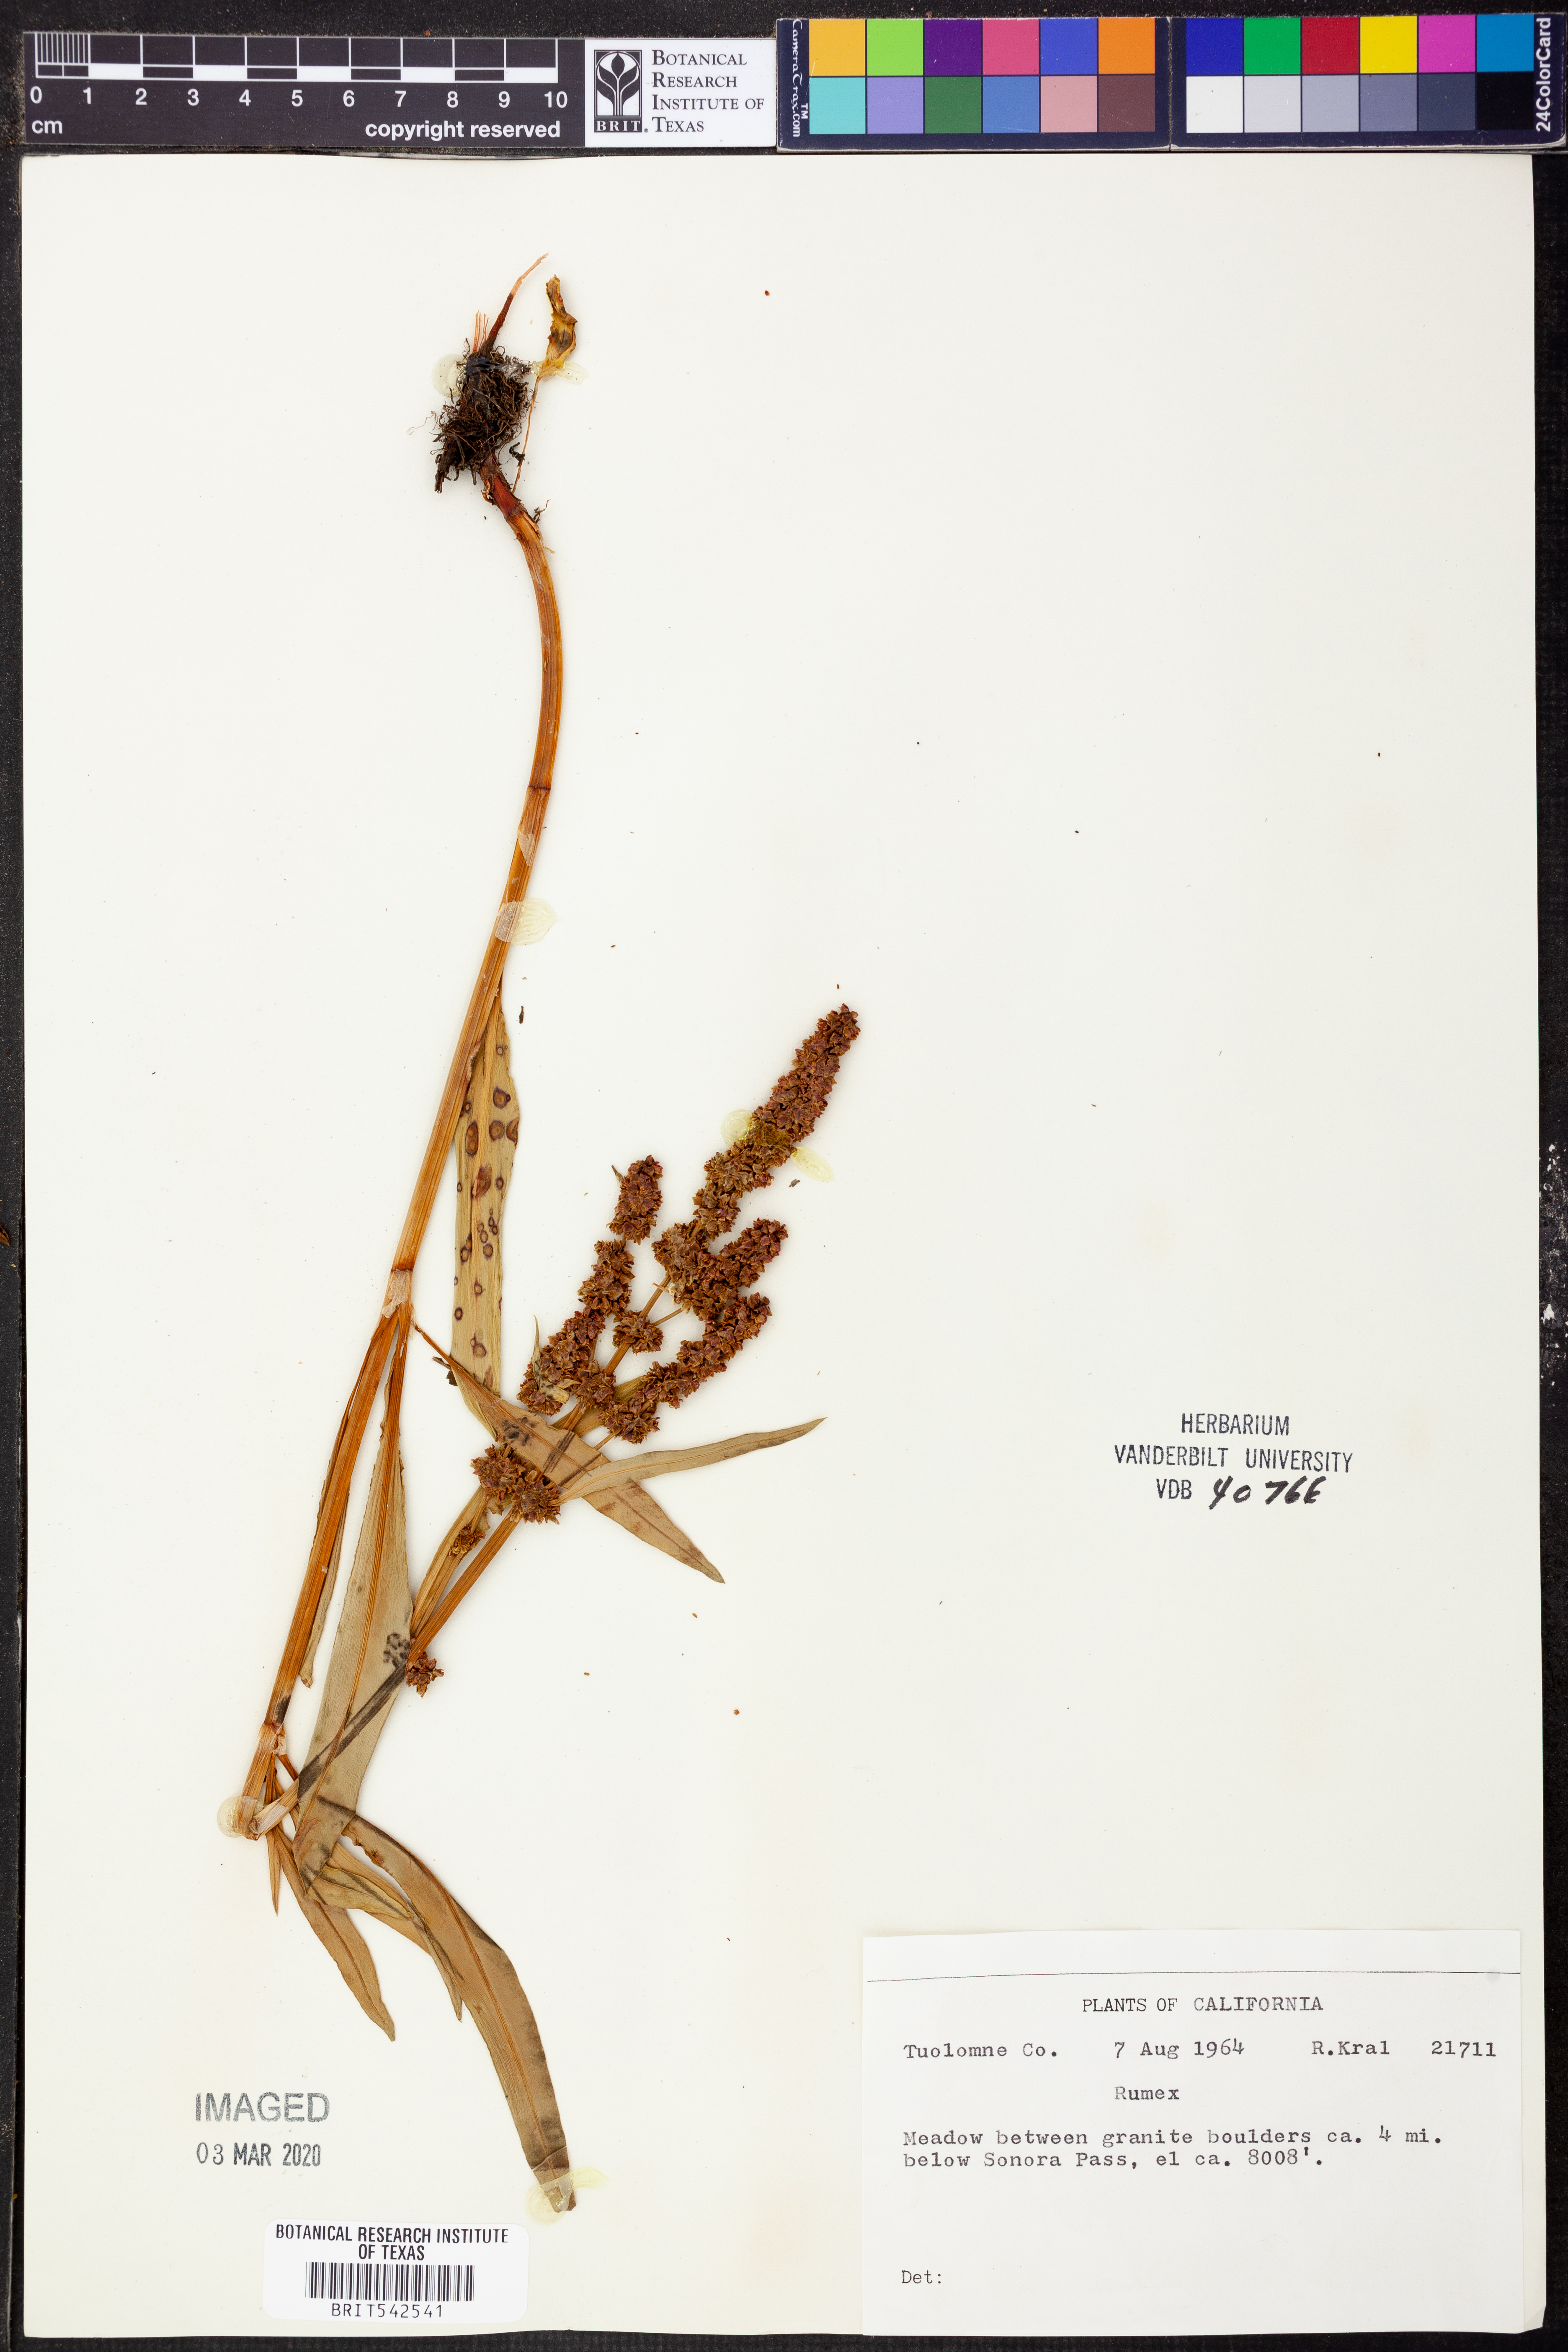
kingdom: Plantae
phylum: Tracheophyta
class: Magnoliopsida
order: Caryophyllales
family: Polygonaceae
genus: Rumex
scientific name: Rumex
